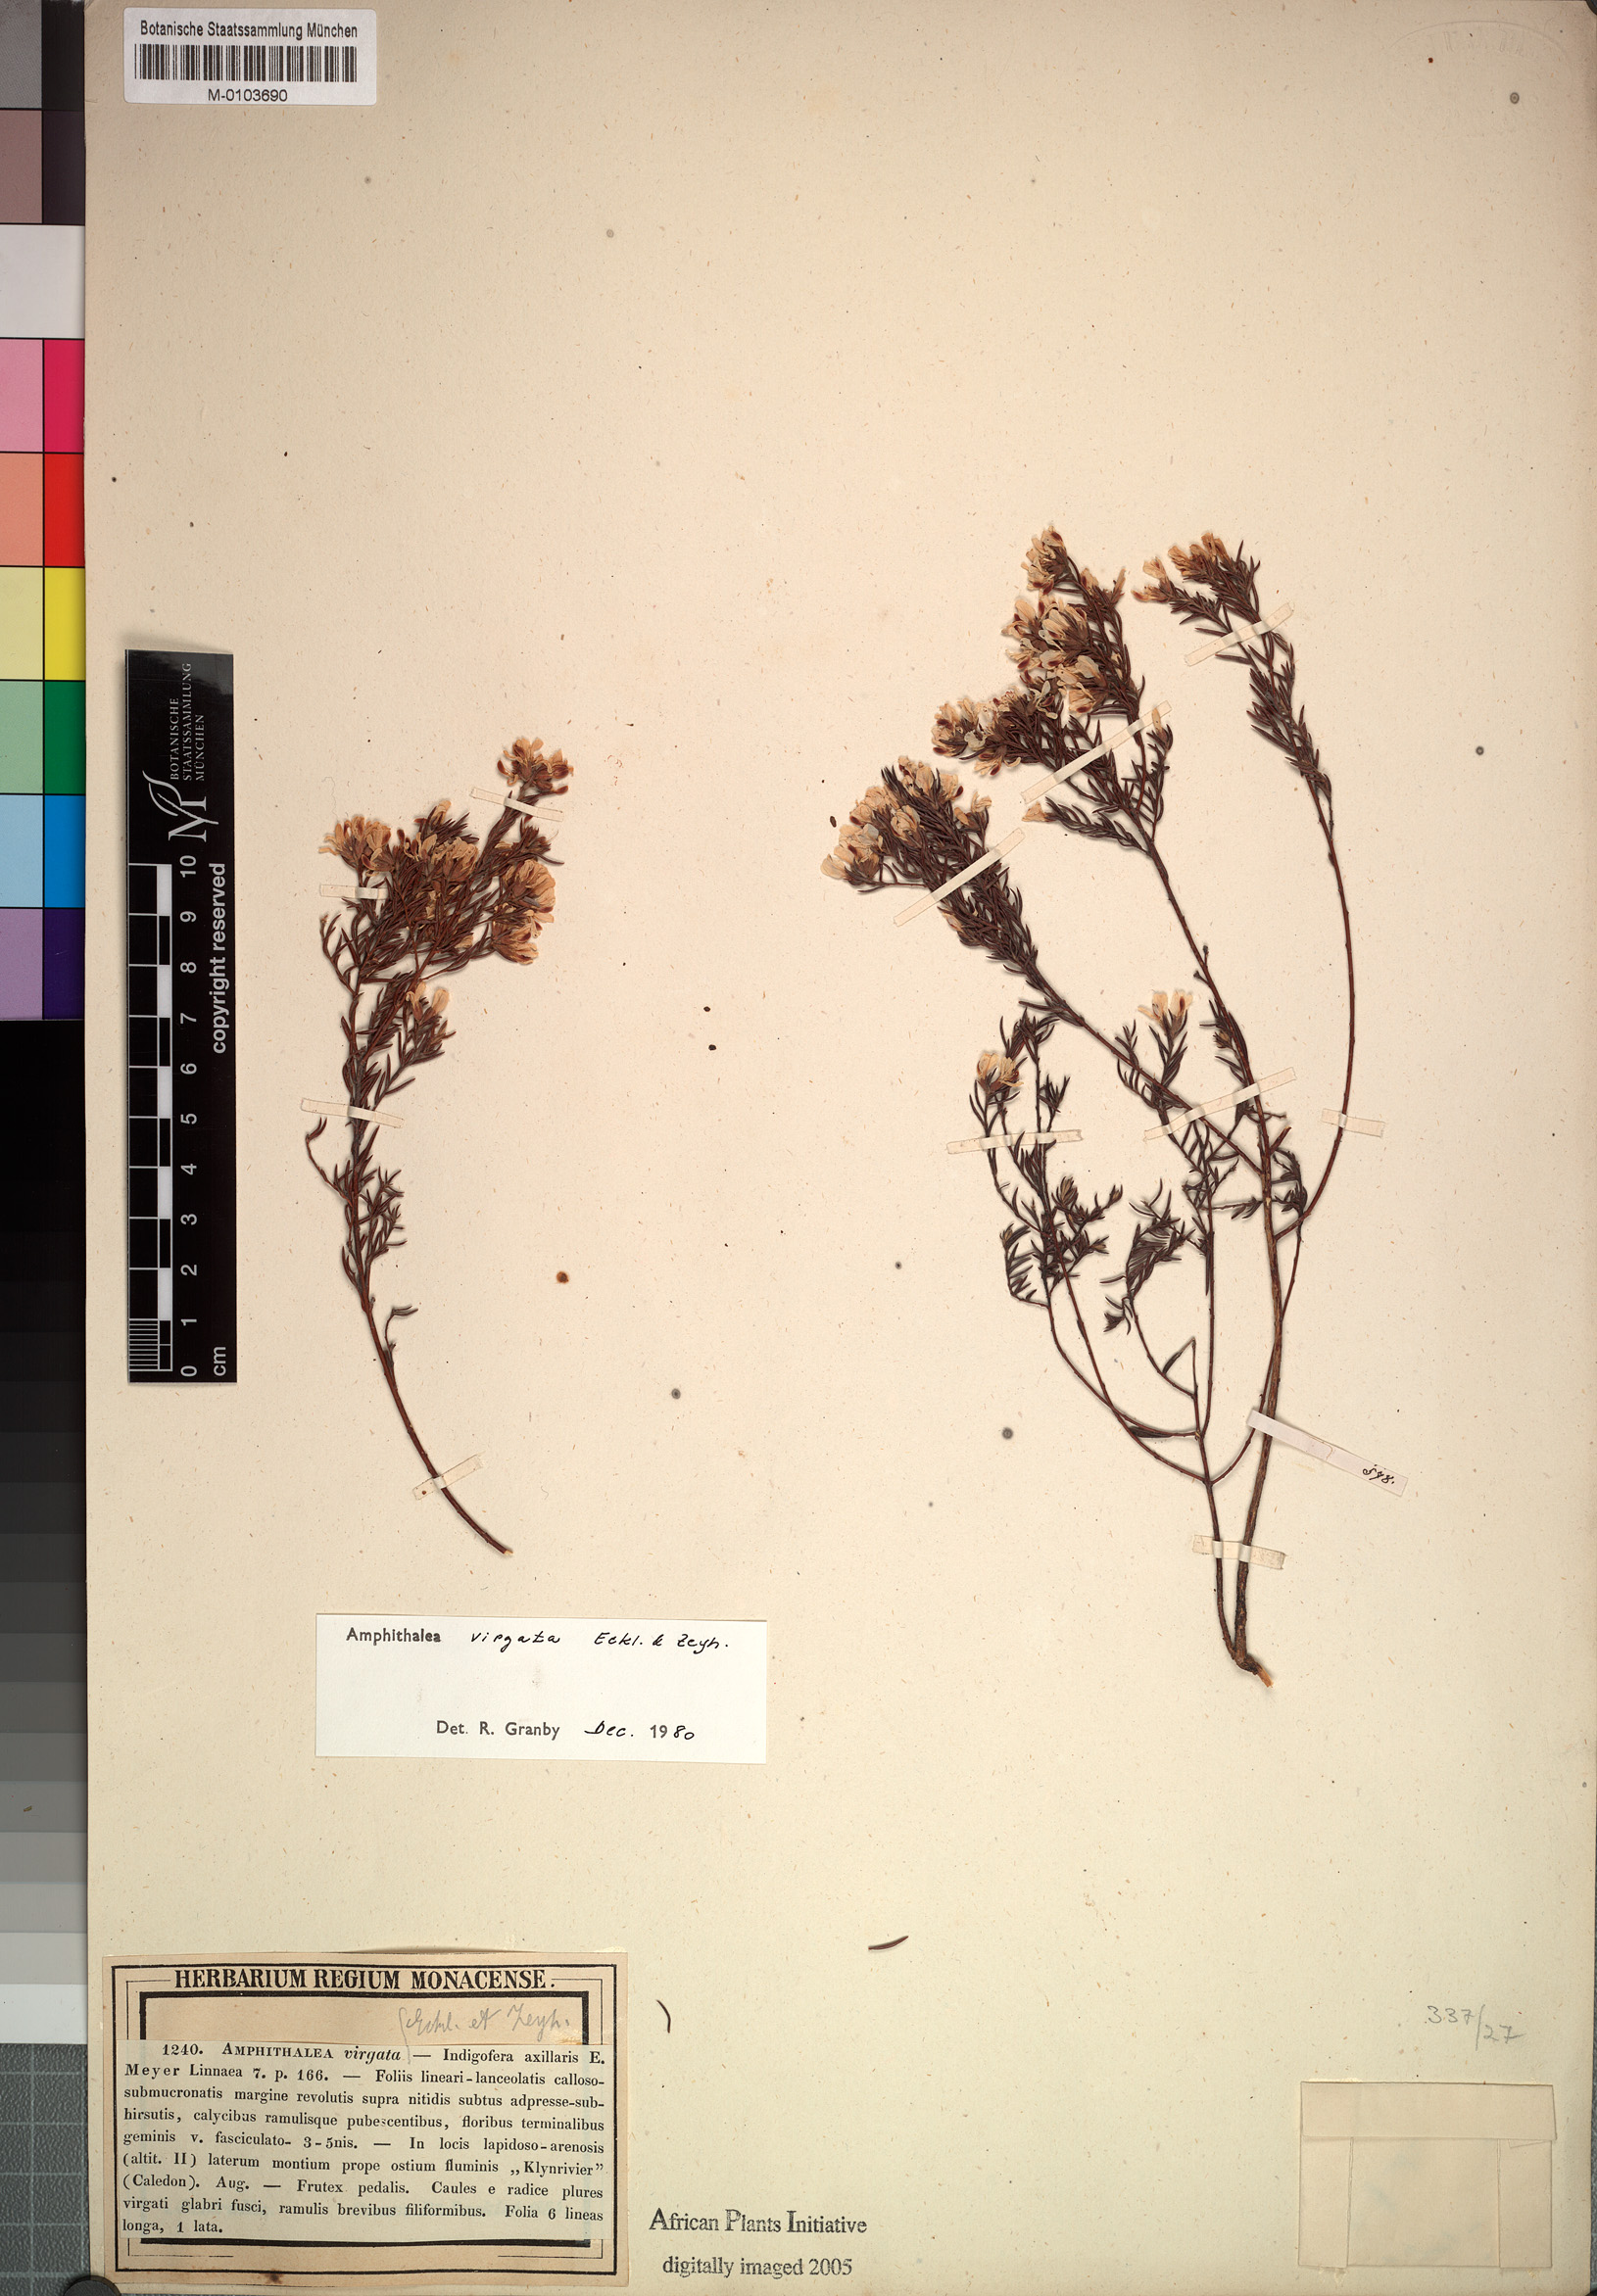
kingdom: Plantae
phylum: Tracheophyta
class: Magnoliopsida
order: Fabales
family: Fabaceae
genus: Amphithalea
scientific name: Amphithalea virgata
